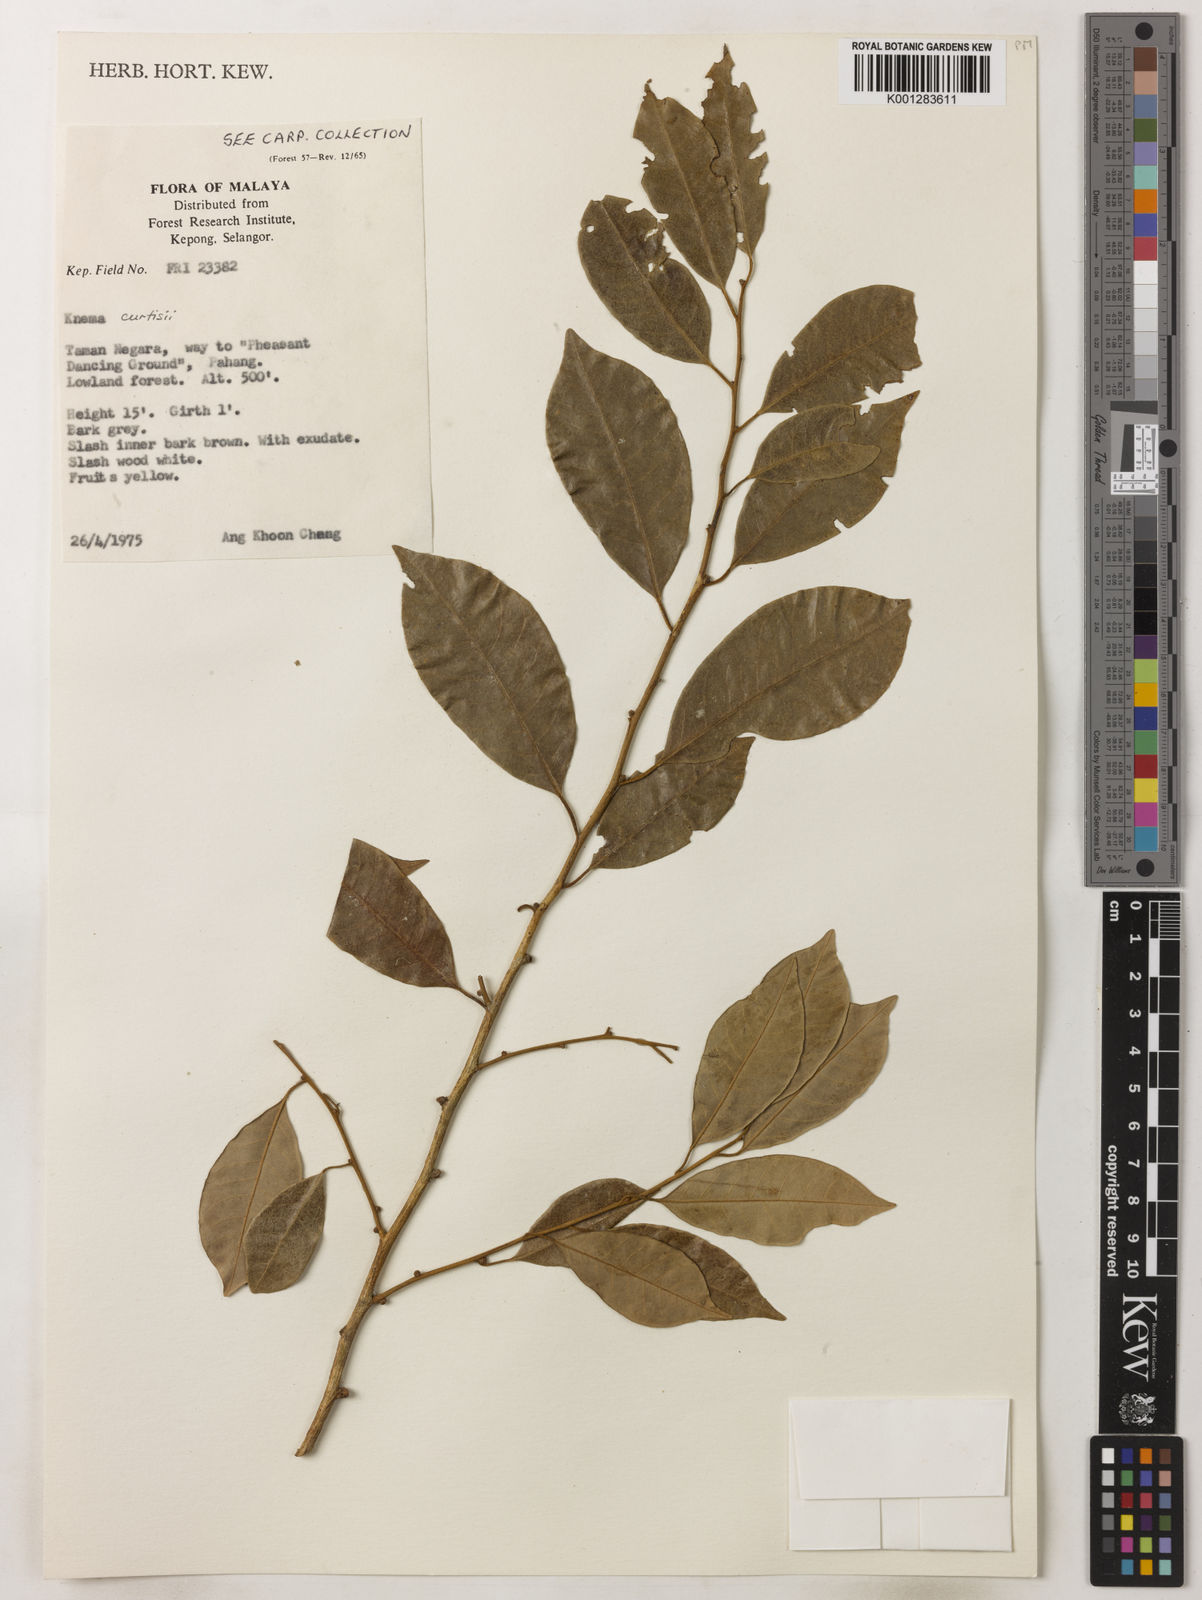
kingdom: Plantae
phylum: Tracheophyta
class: Magnoliopsida
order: Magnoliales
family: Myristicaceae
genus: Knema
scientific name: Knema curtisii
